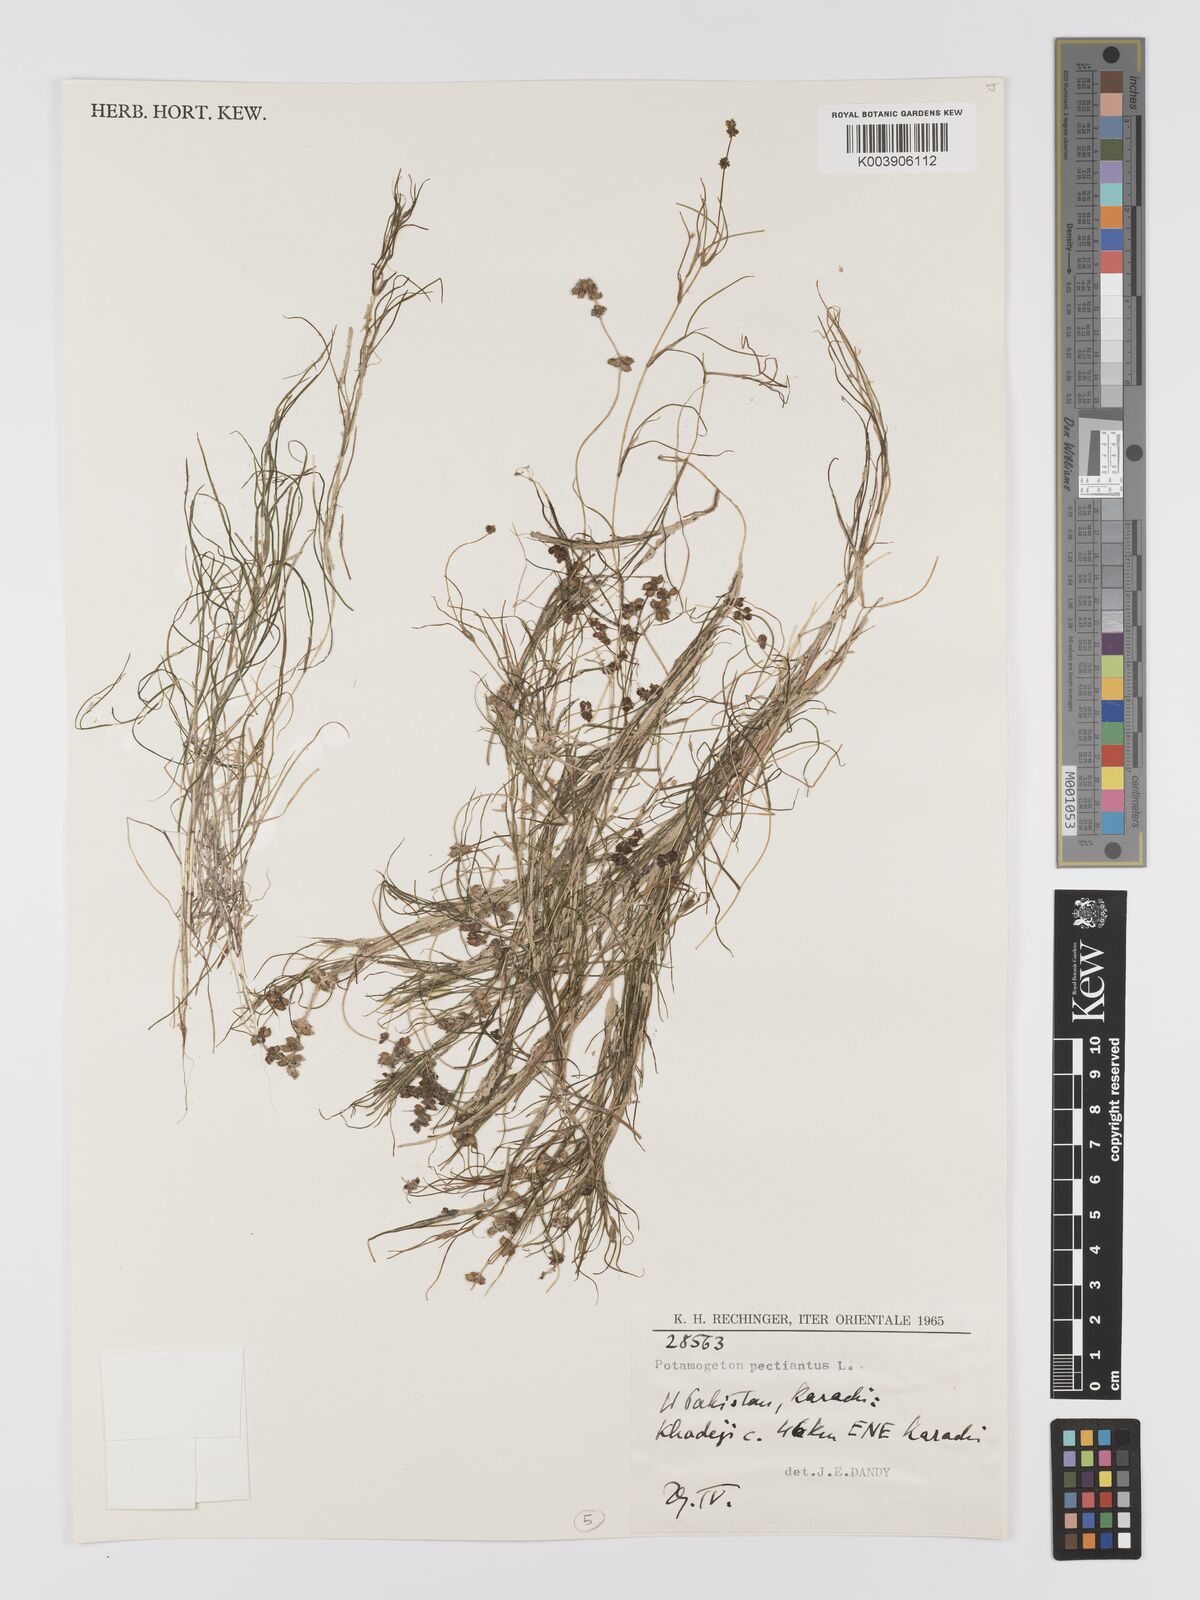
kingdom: Plantae
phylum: Tracheophyta
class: Liliopsida
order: Alismatales
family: Potamogetonaceae
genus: Stuckenia
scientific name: Stuckenia pectinata
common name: Sago pondweed
